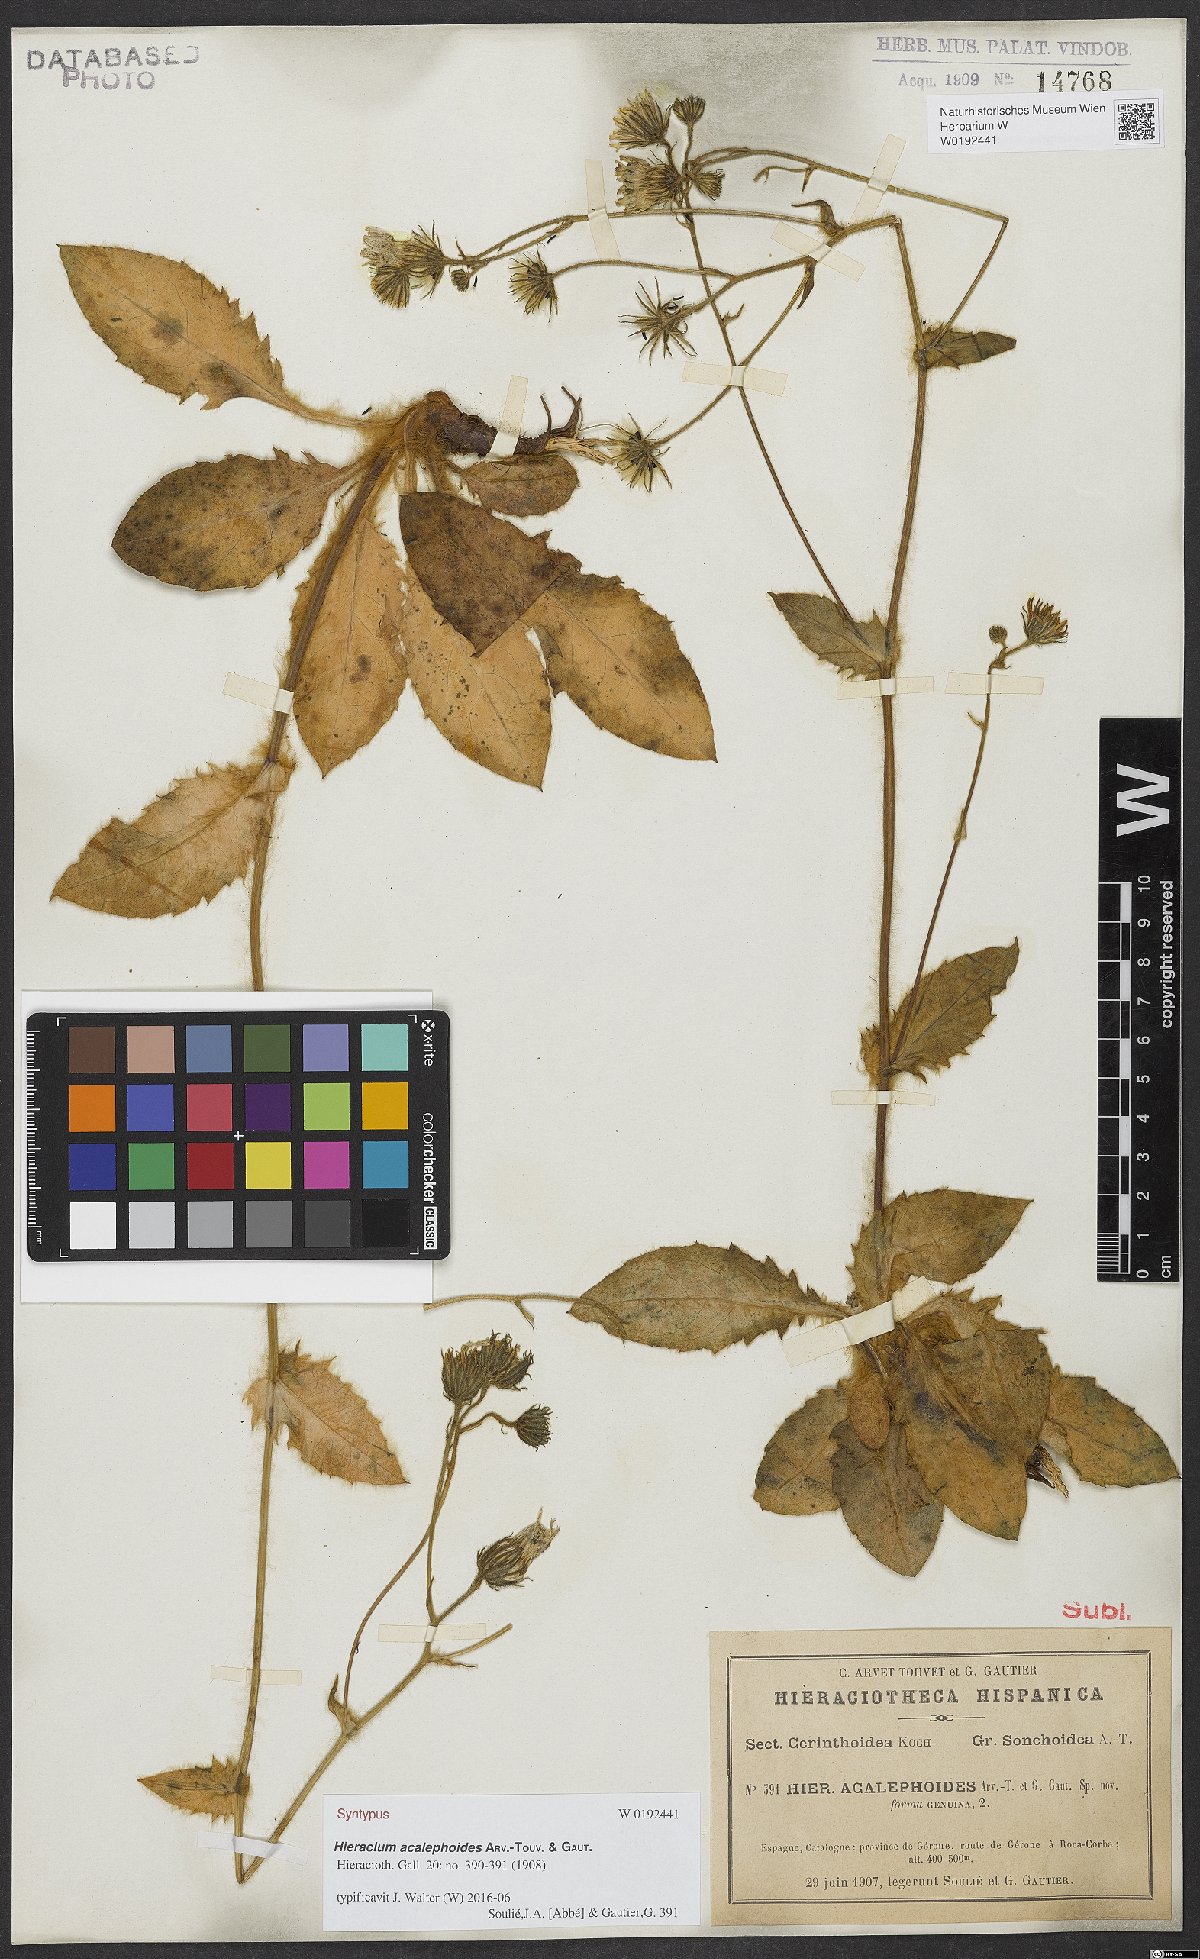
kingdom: Plantae
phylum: Tracheophyta
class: Magnoliopsida
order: Asterales
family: Asteraceae
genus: Hieracium
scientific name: Hieracium acalephoides
